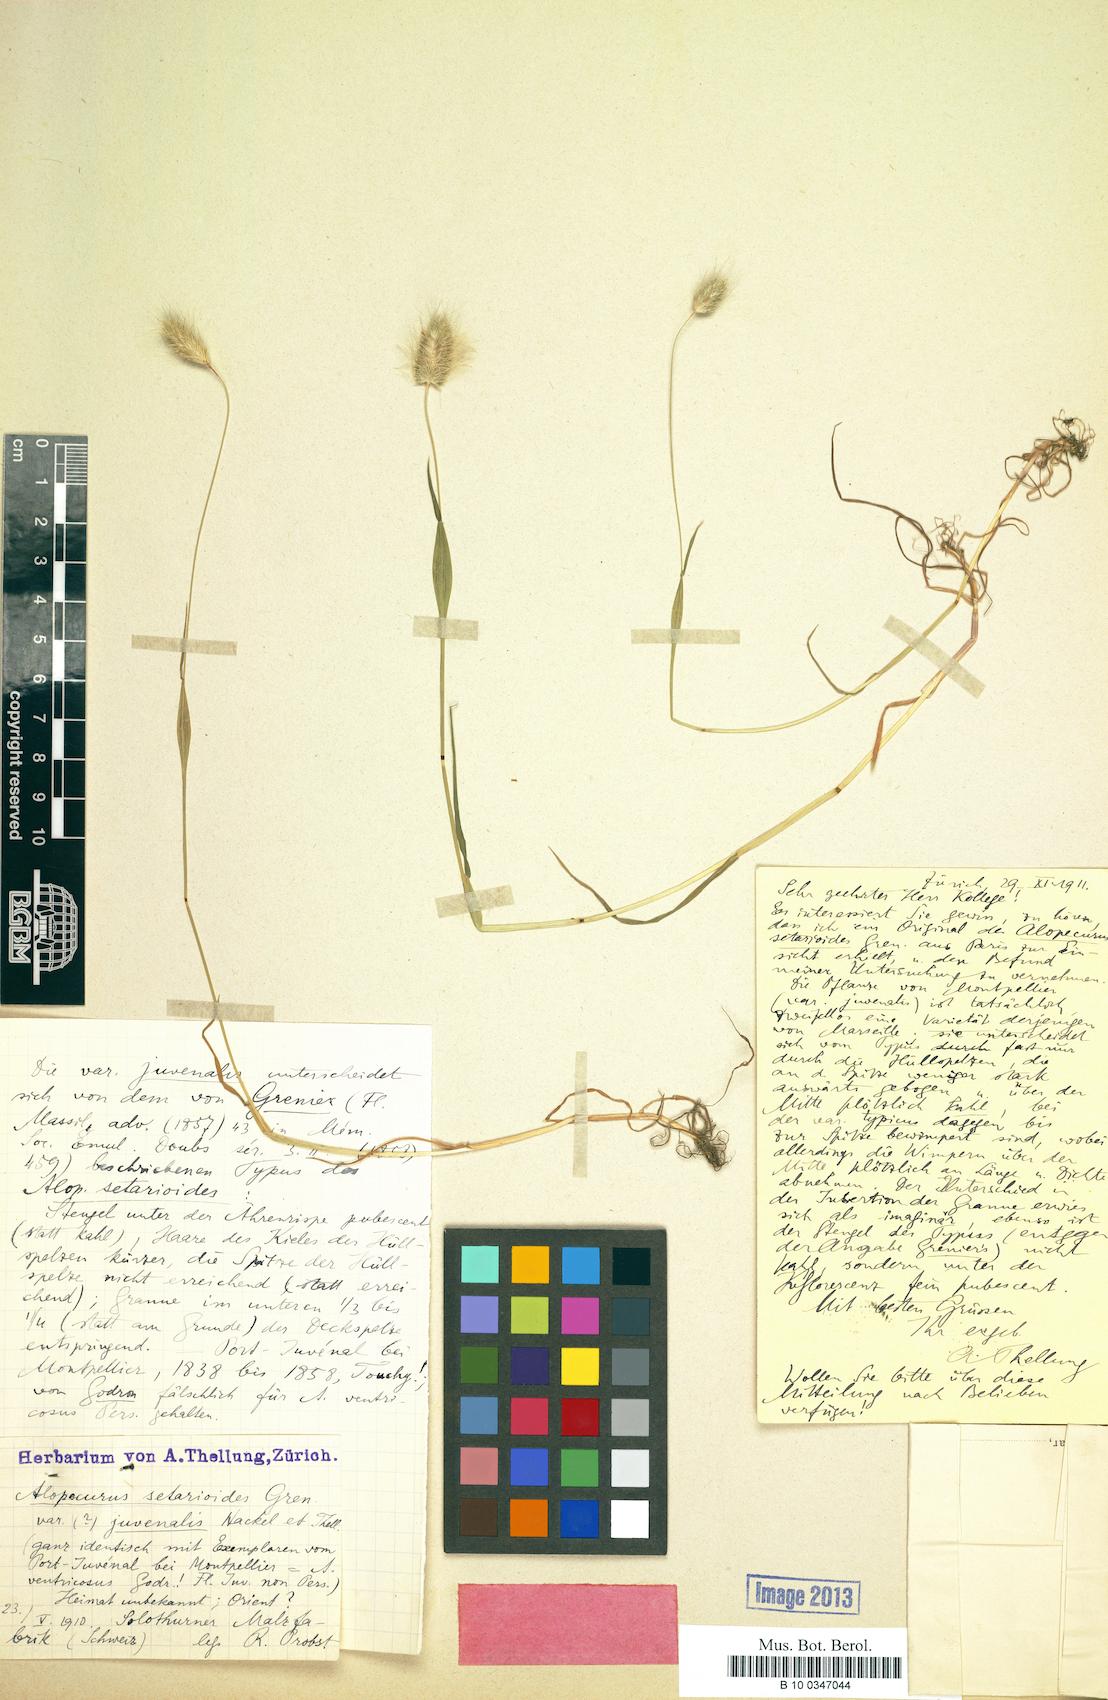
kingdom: Plantae
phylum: Tracheophyta
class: Liliopsida
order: Poales
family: Poaceae
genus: Alopecurus
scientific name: Alopecurus setarioides
